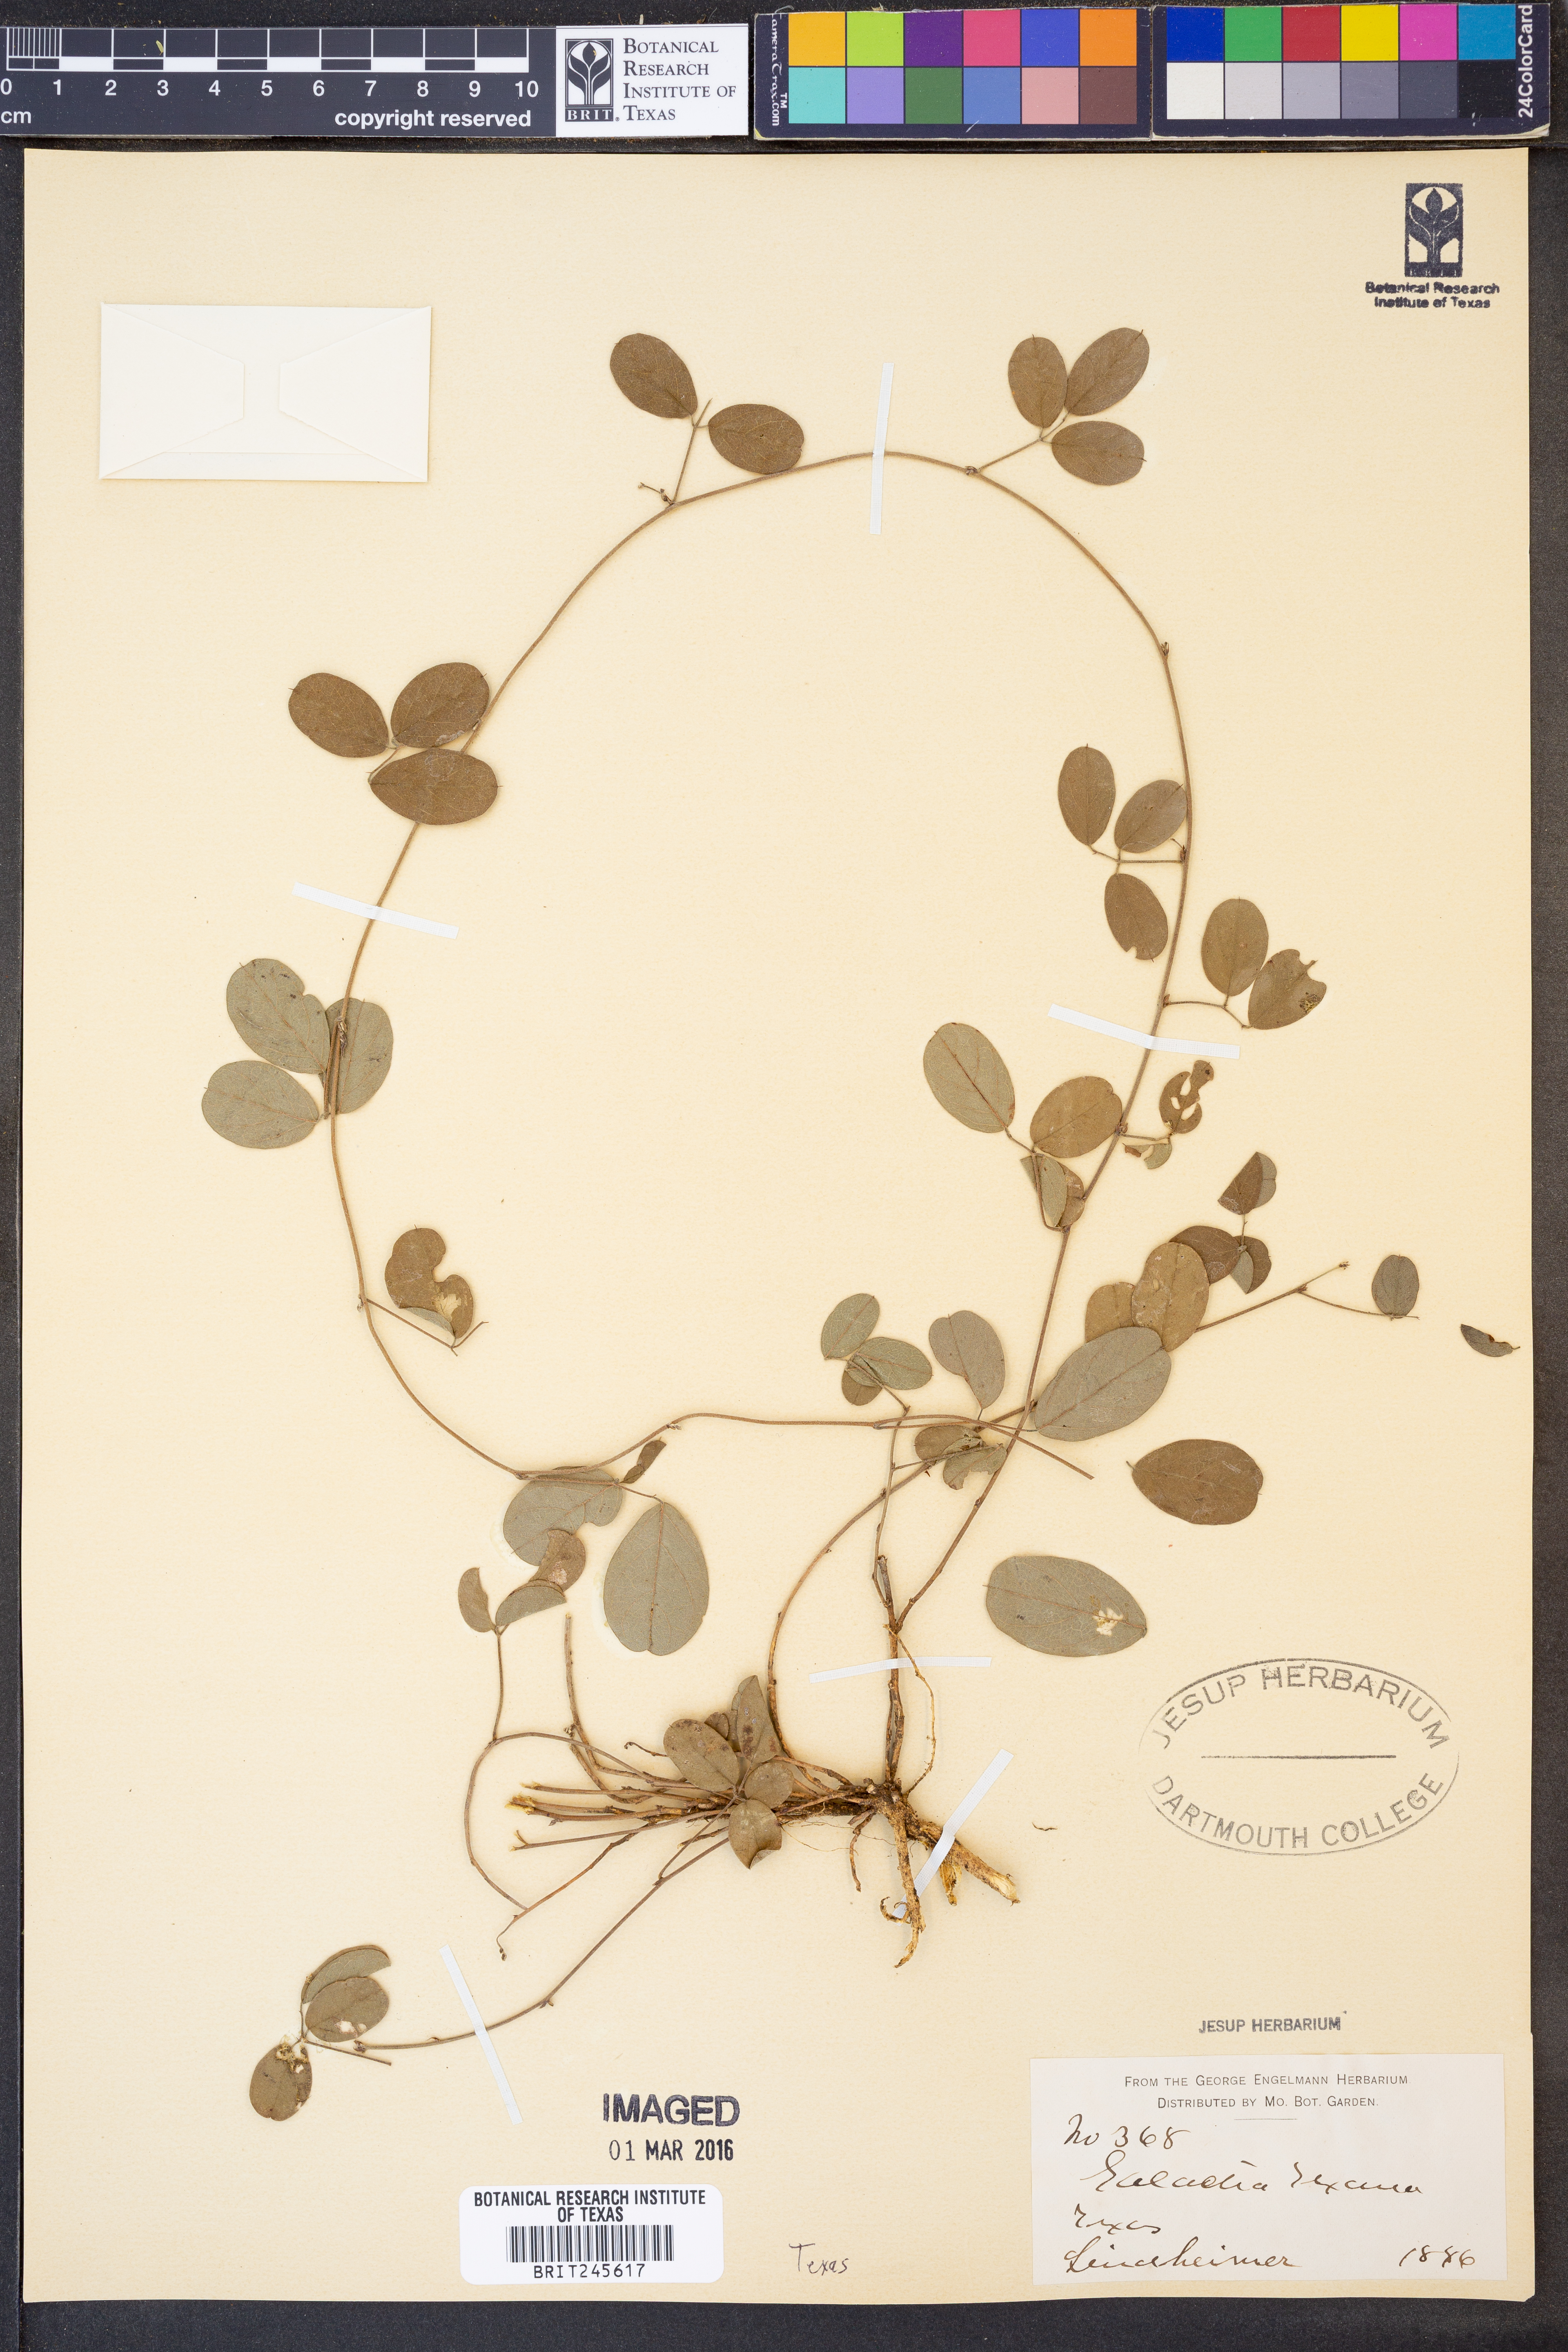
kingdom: Plantae
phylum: Tracheophyta
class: Magnoliopsida
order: Fabales
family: Fabaceae
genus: Galactia
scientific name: Galactia texana
